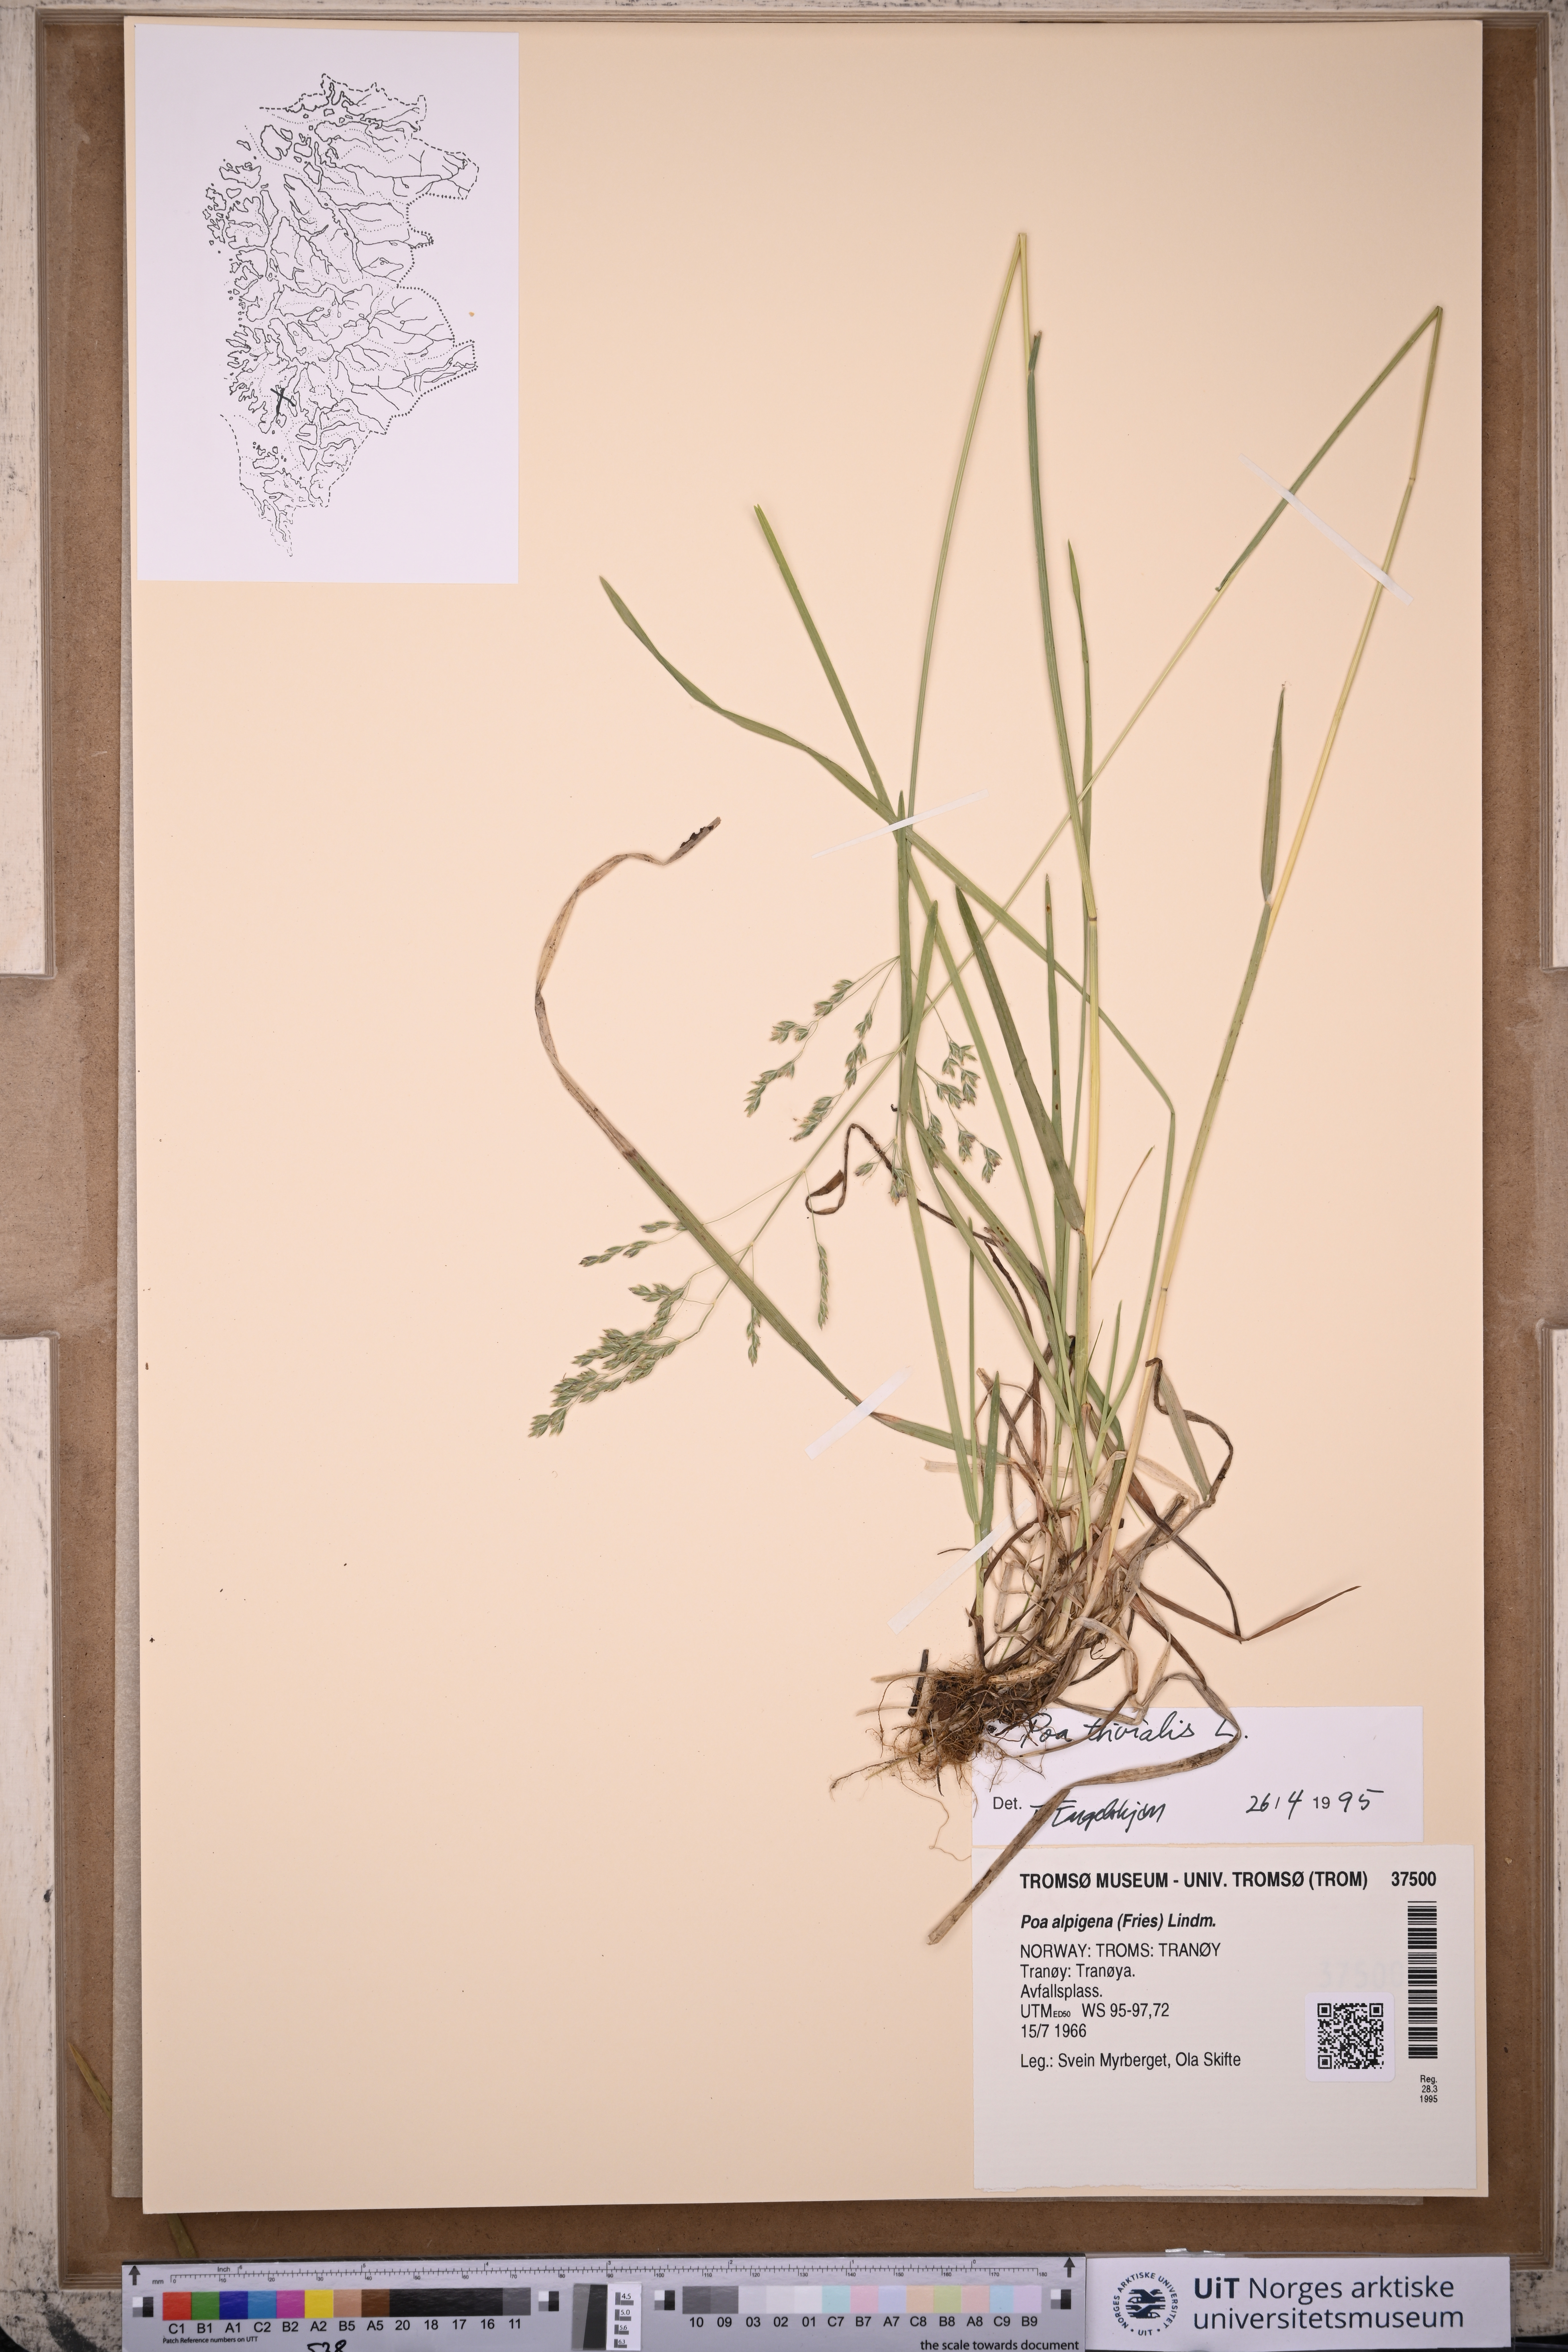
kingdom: Plantae
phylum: Tracheophyta
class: Liliopsida
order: Poales
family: Poaceae
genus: Poa
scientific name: Poa trivialis
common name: Rough bluegrass
